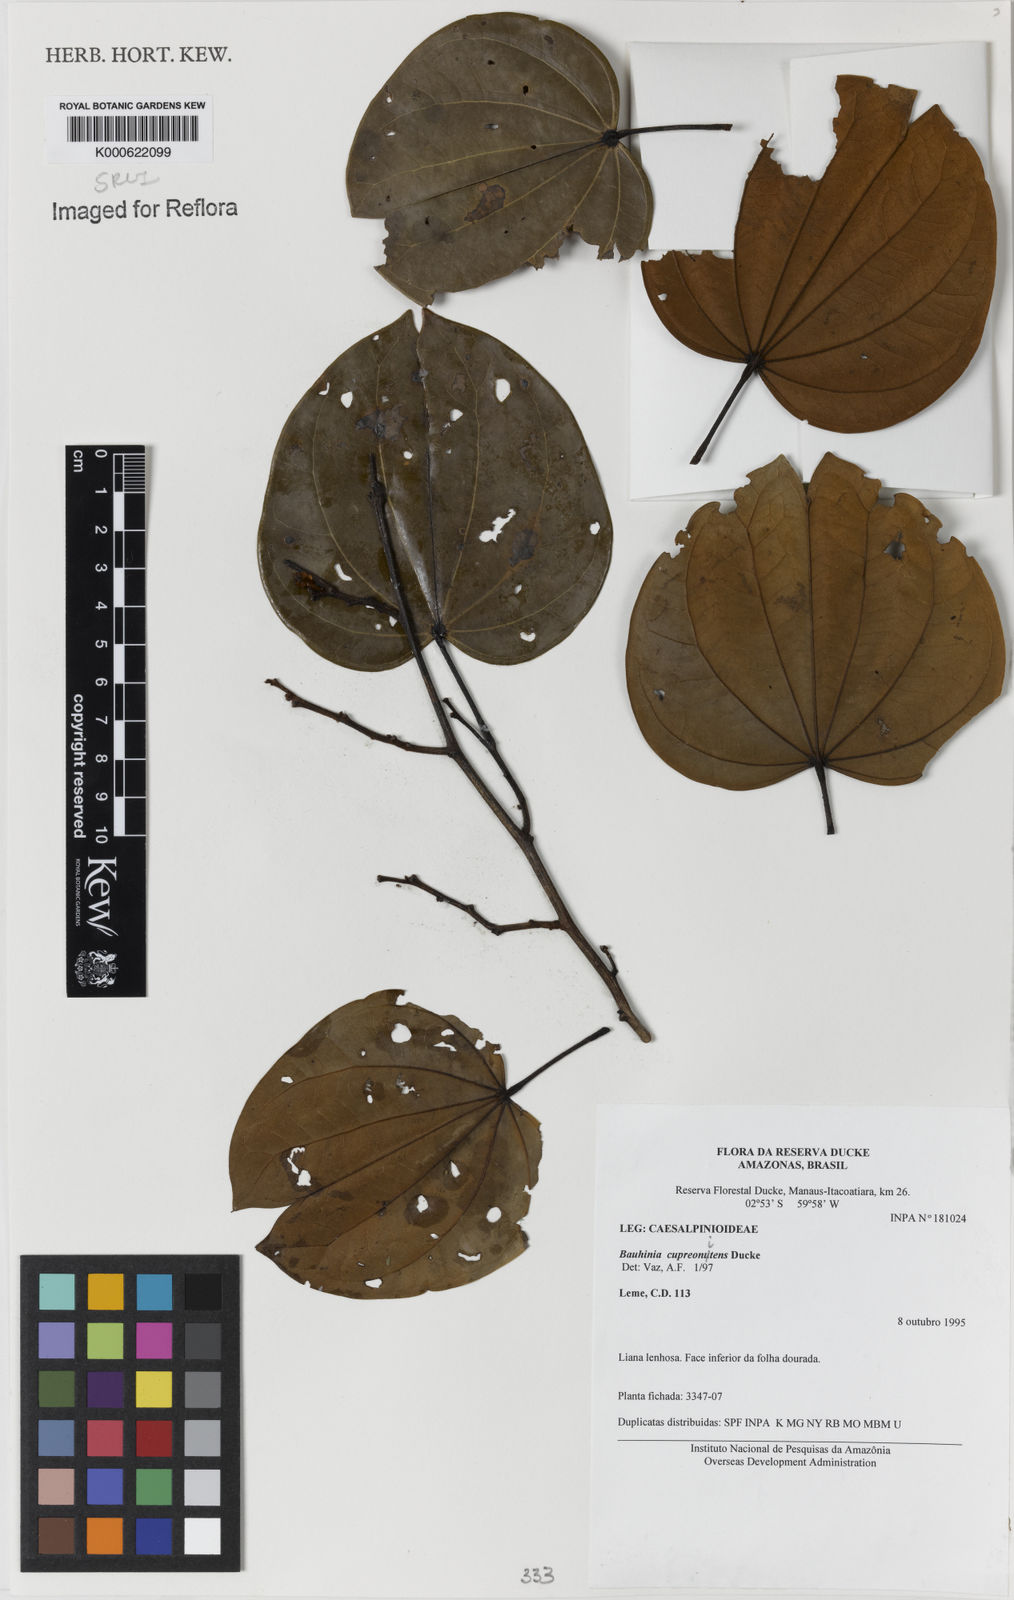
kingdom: Plantae
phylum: Tracheophyta
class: Magnoliopsida
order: Fabales
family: Fabaceae
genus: Schnella
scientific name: Schnella cupreonitens
